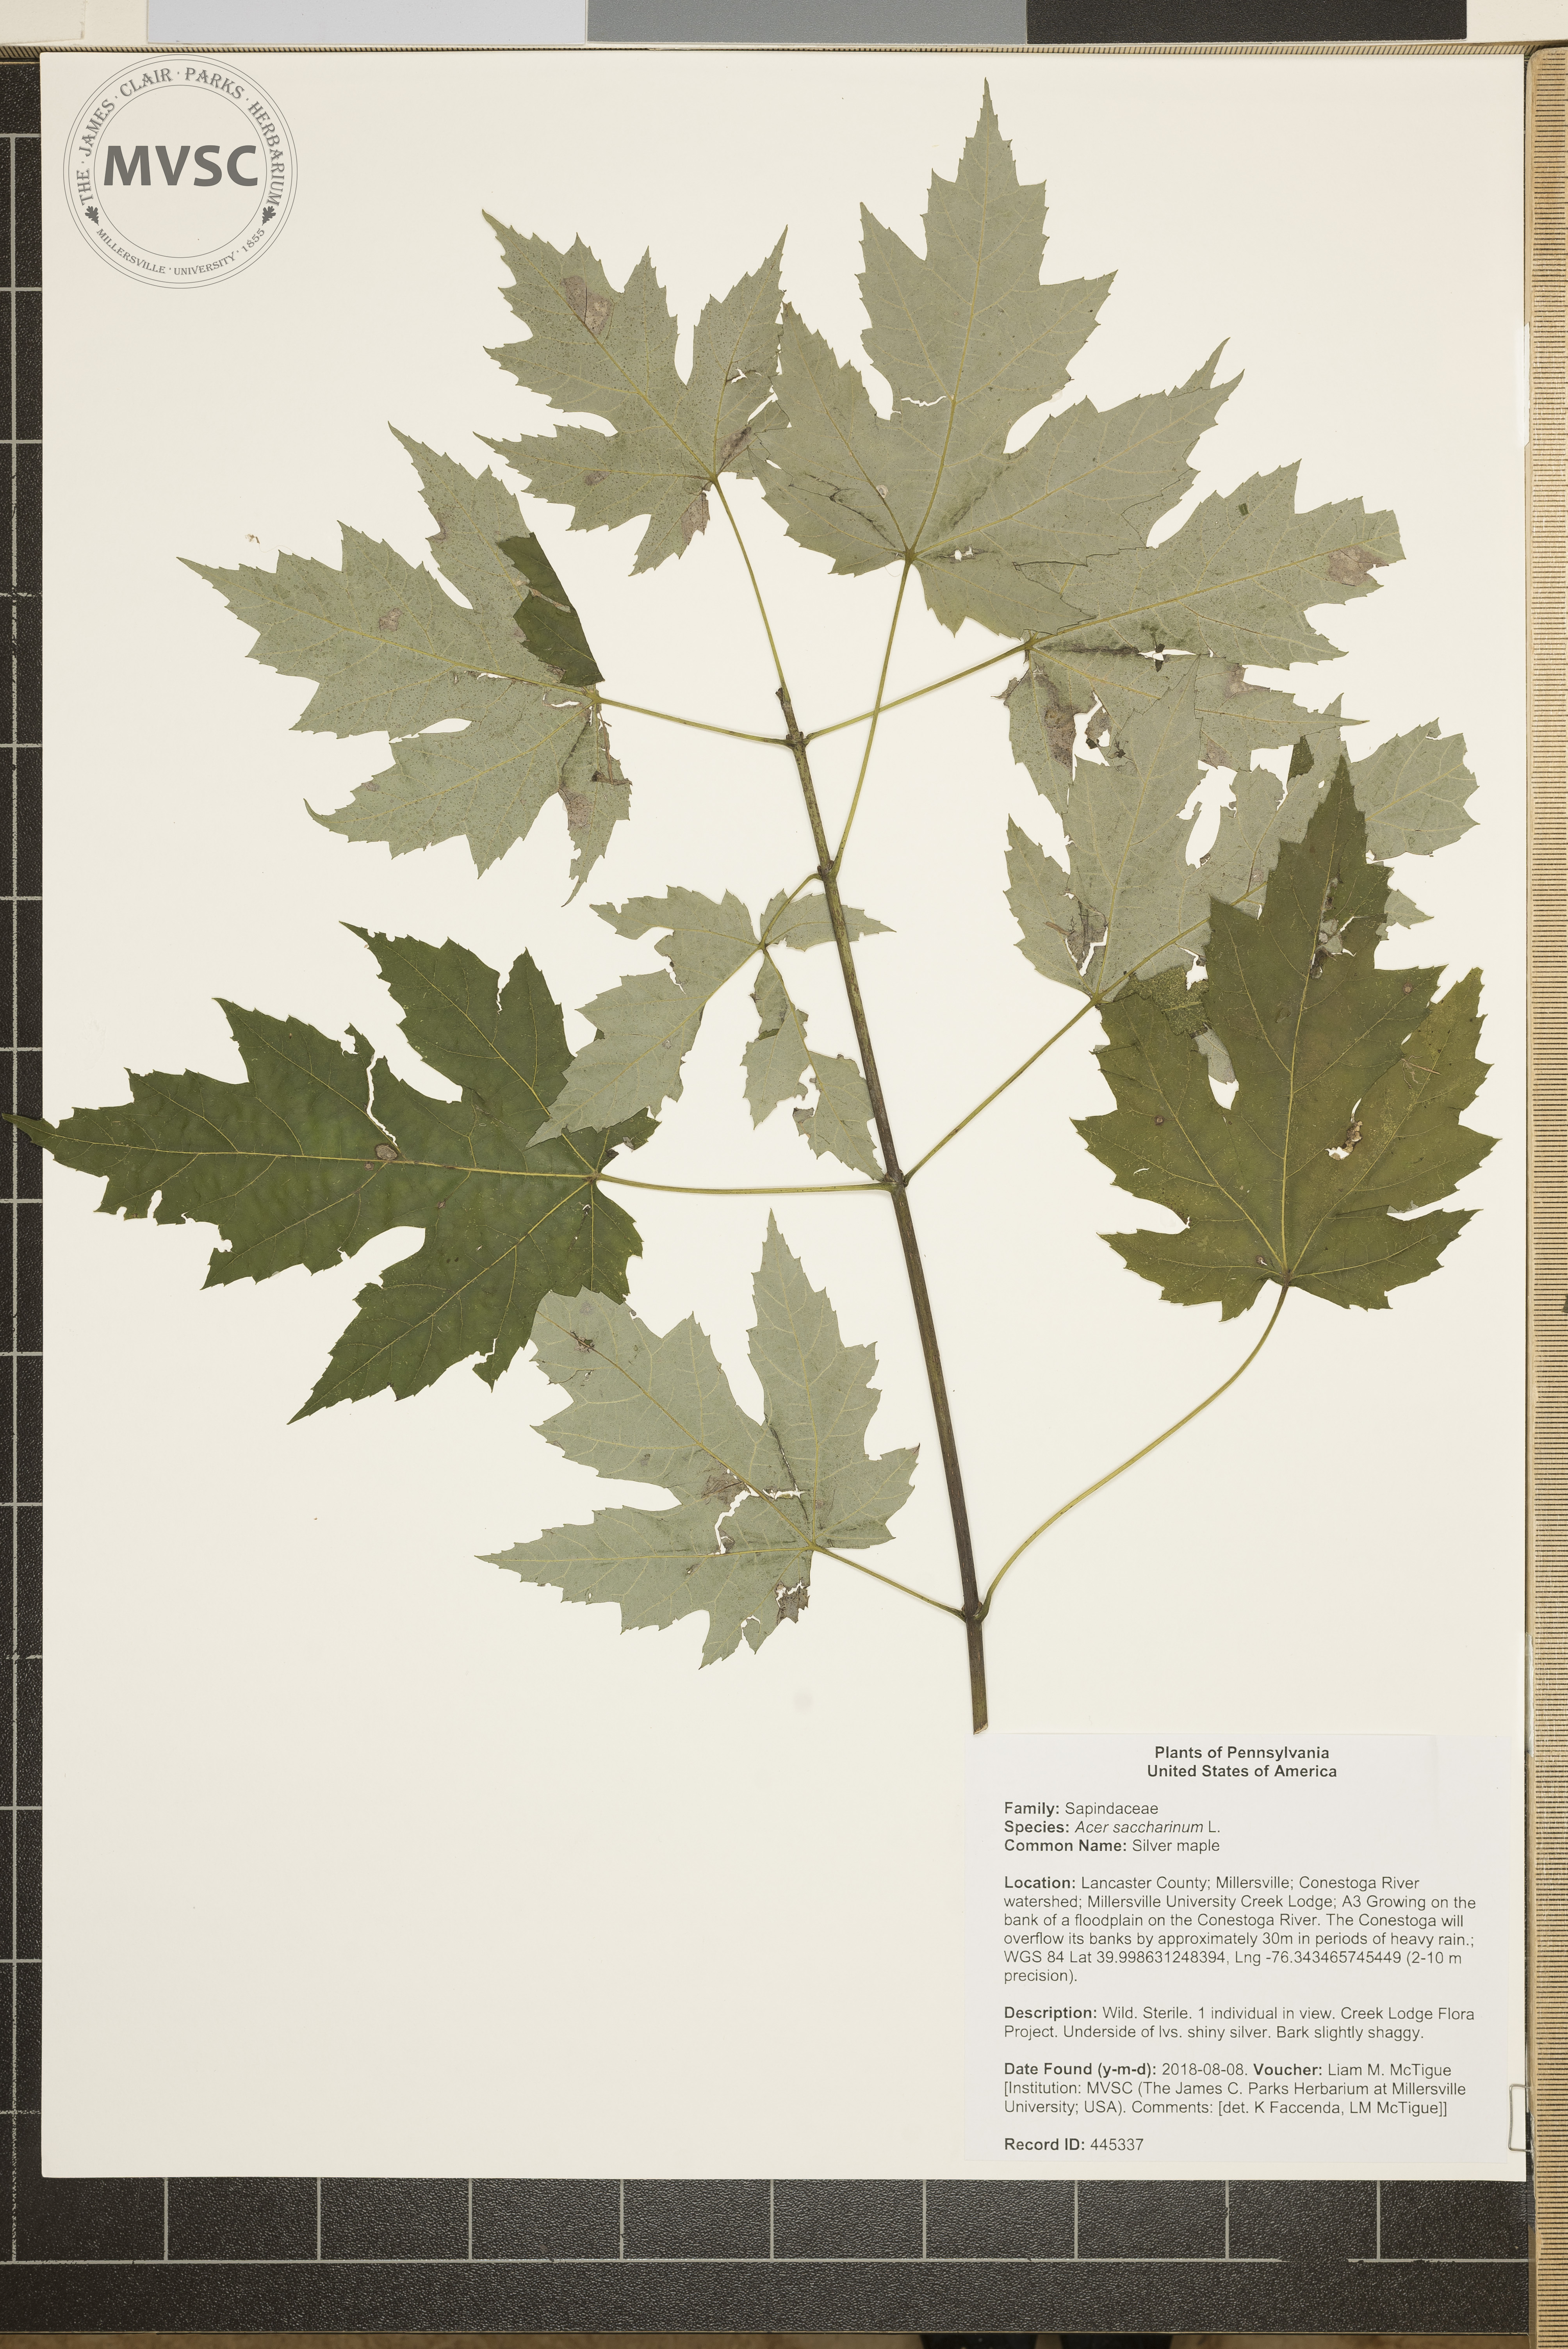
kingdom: Plantae
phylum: Tracheophyta
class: Magnoliopsida
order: Sapindales
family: Sapindaceae
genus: Acer
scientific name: Acer saccharinum
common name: Silver maple
